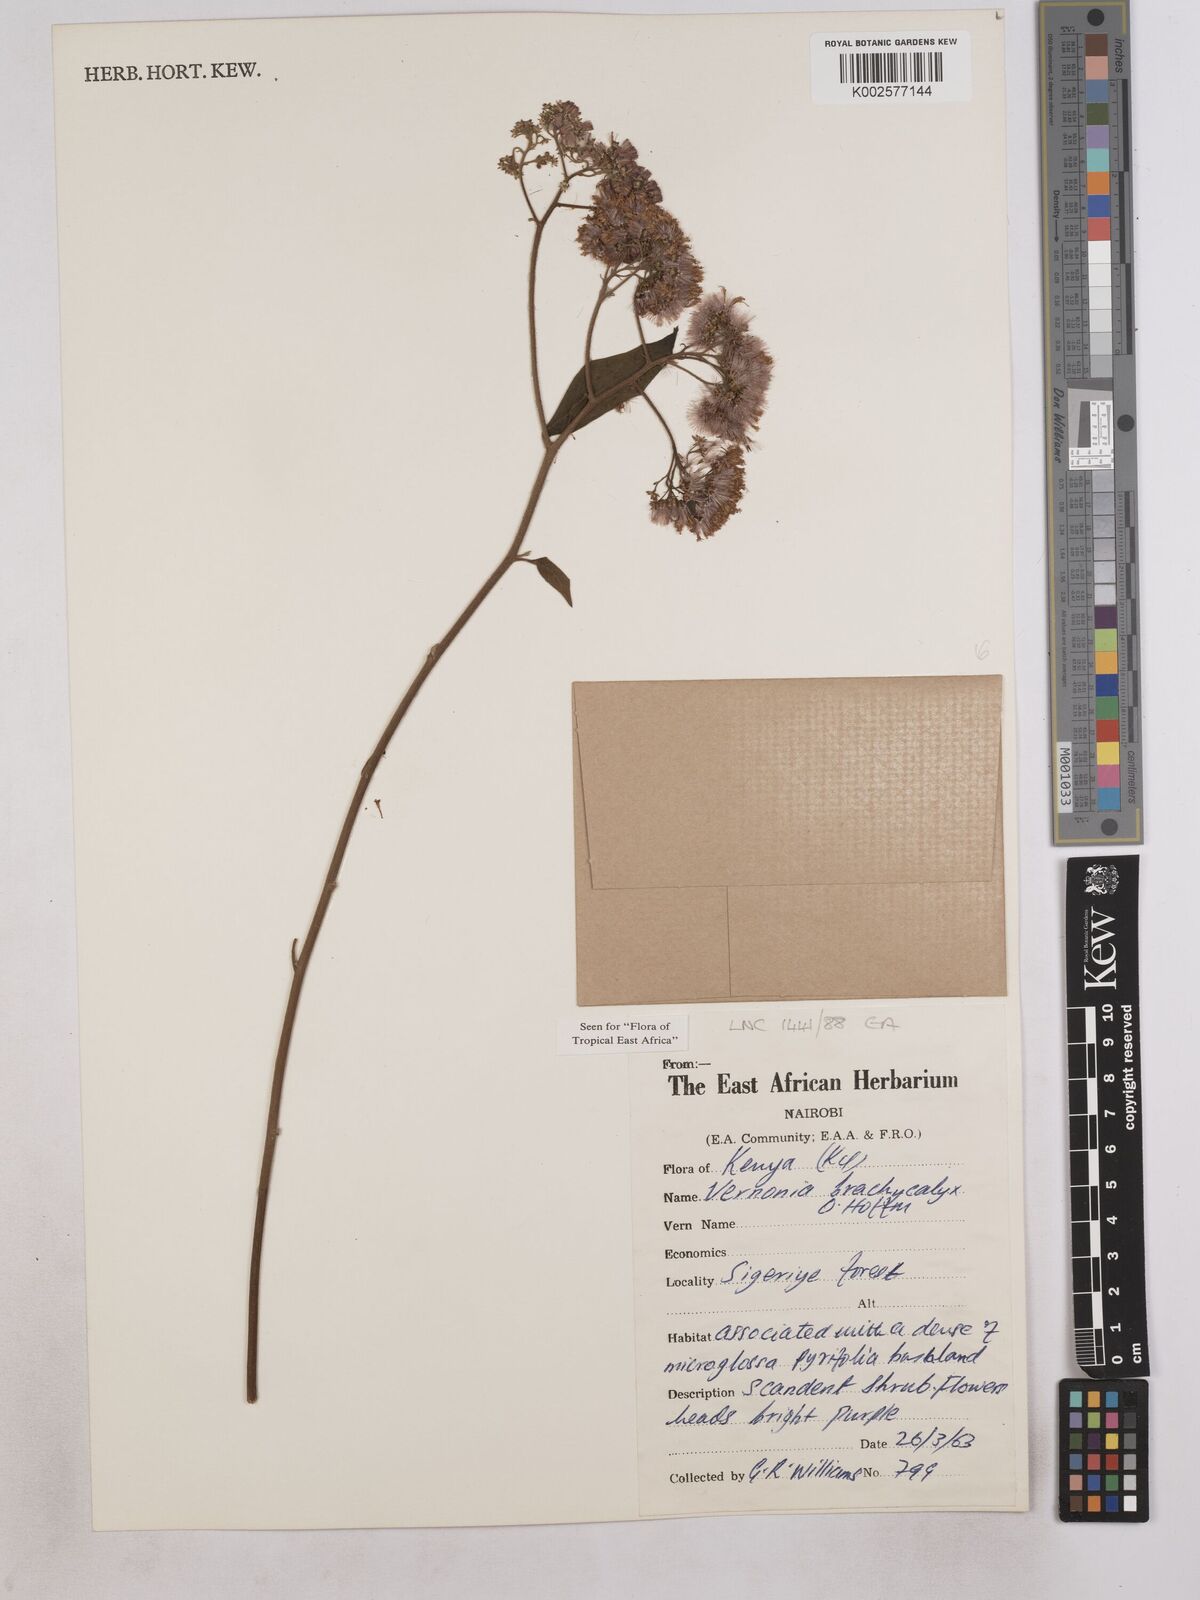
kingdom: Plantae
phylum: Tracheophyta
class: Magnoliopsida
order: Asterales
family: Asteraceae
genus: Hoffmannanthus
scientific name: Hoffmannanthus abbotianus
